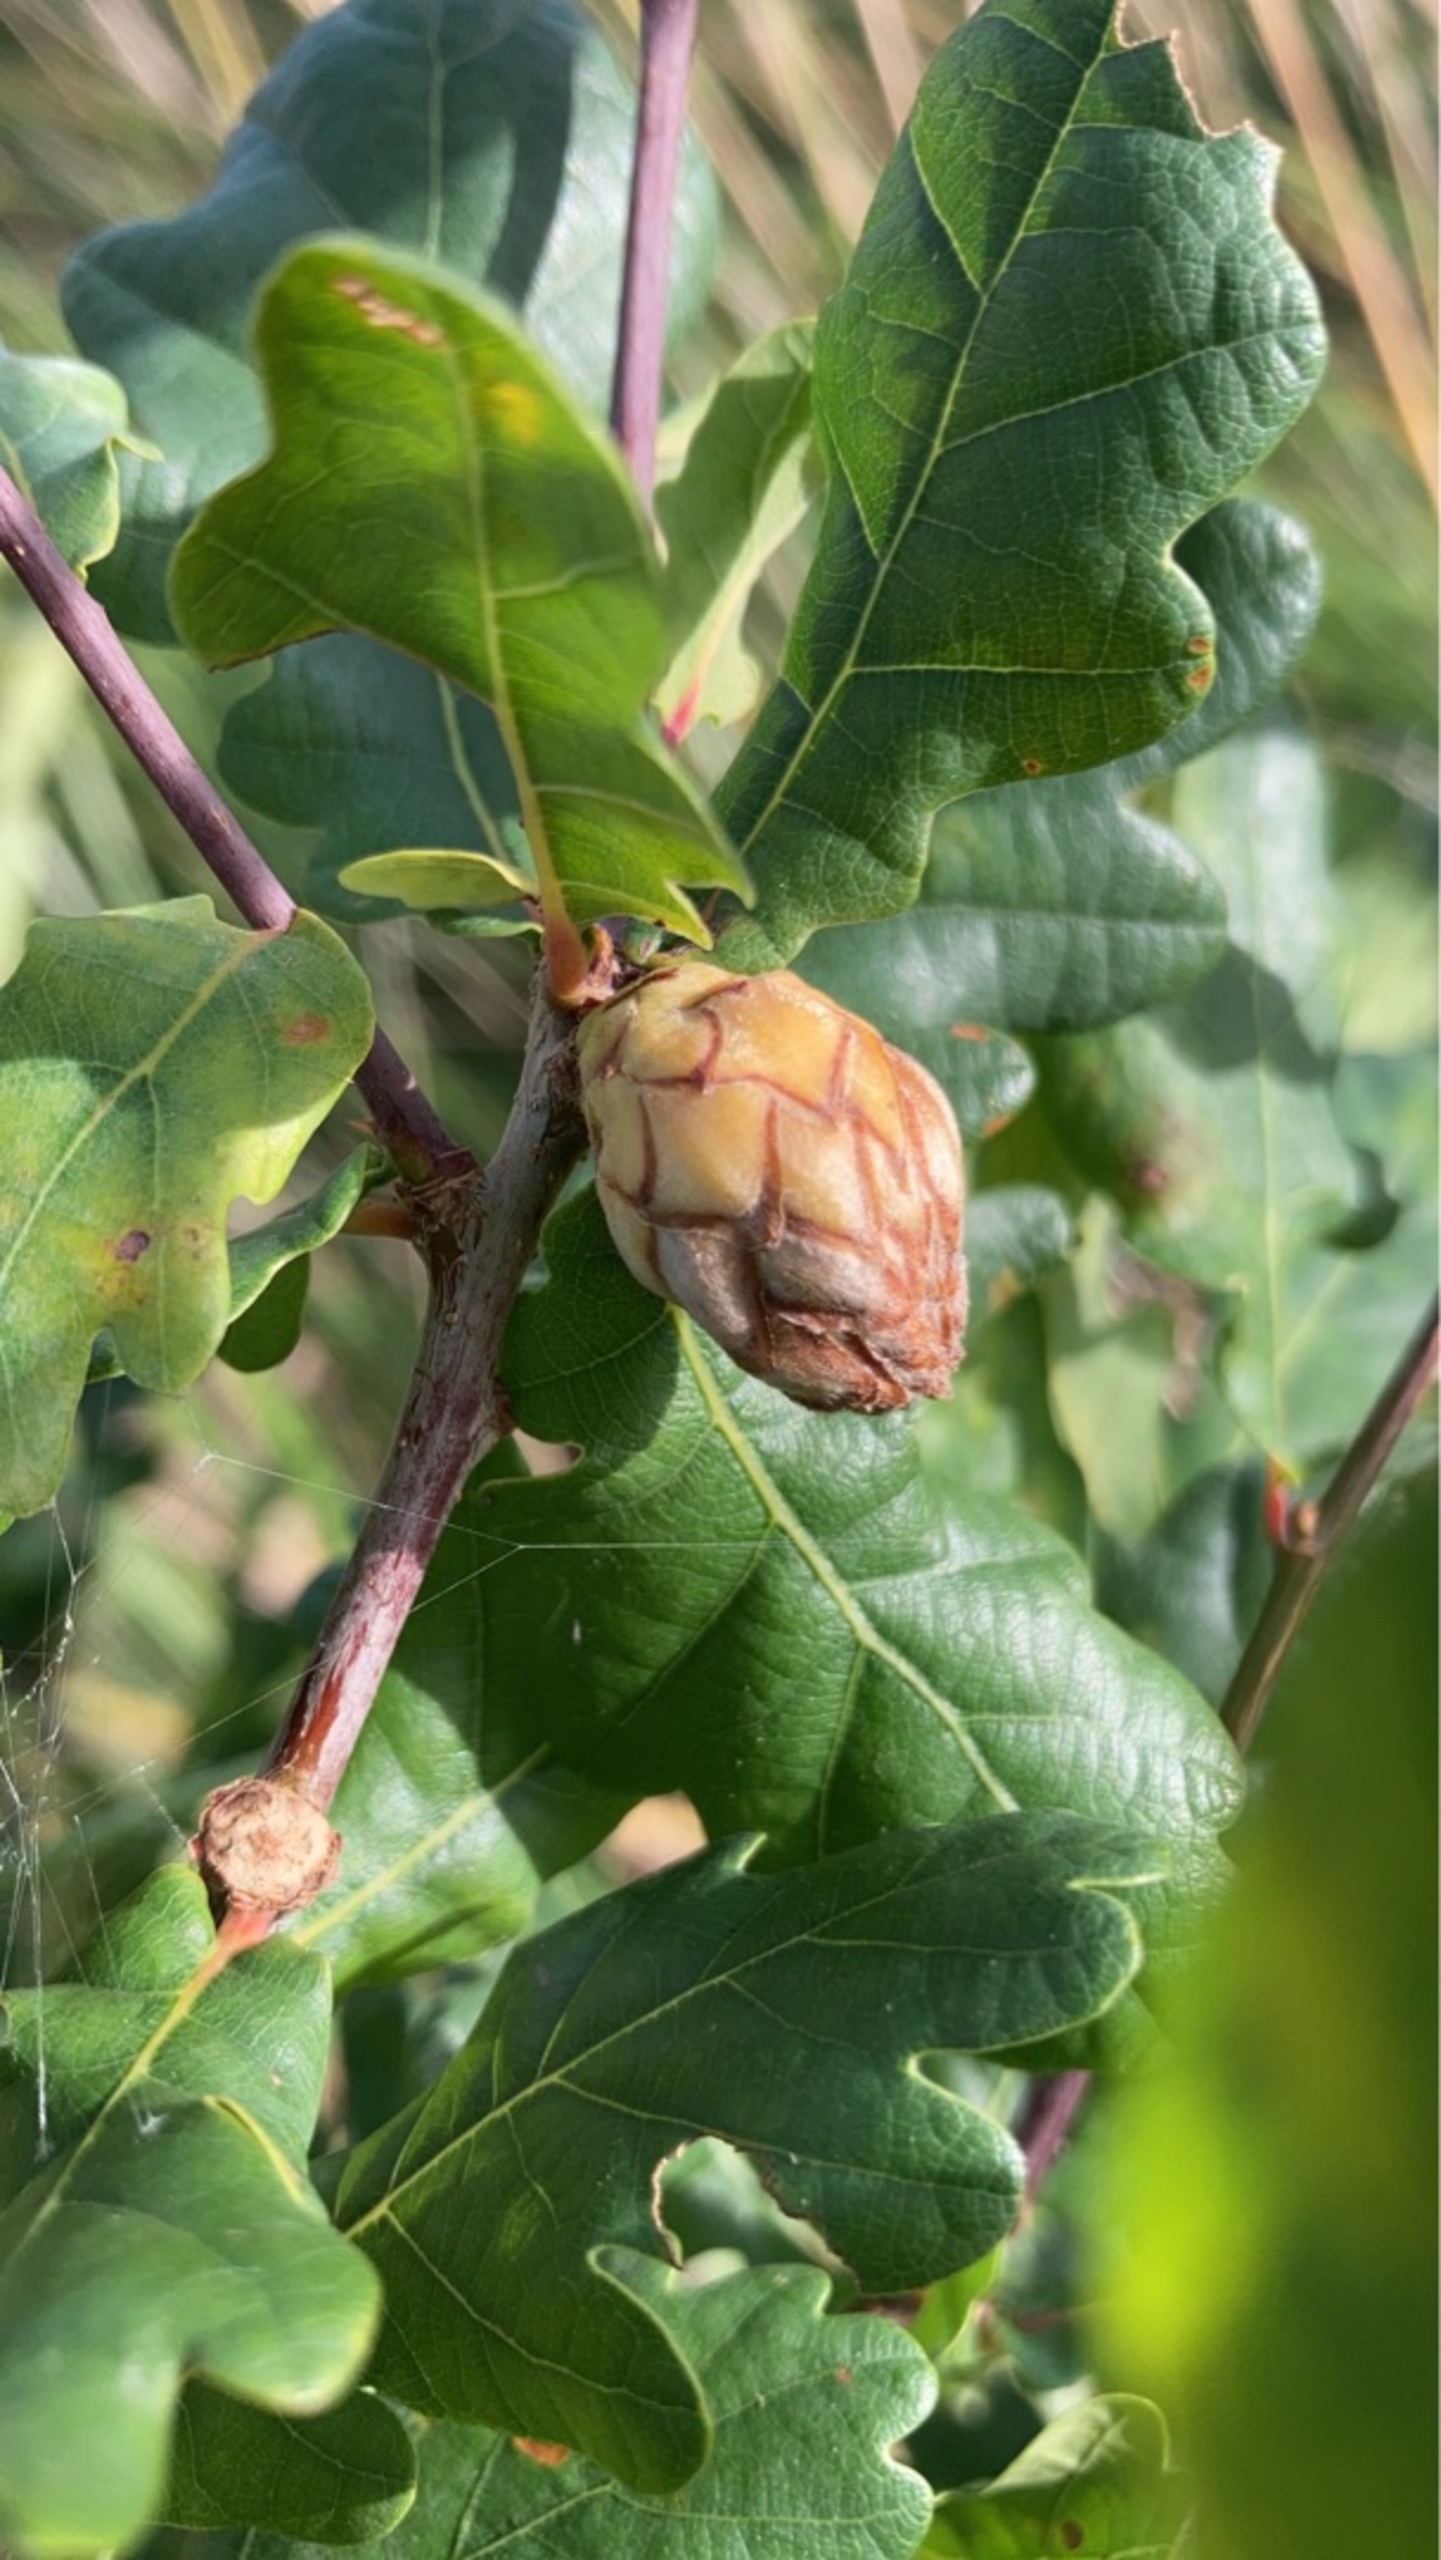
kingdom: Animalia
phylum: Arthropoda
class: Insecta
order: Hymenoptera
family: Cynipidae
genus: Andricus
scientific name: Andricus foecundatrix
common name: Artiskokgalhveps
